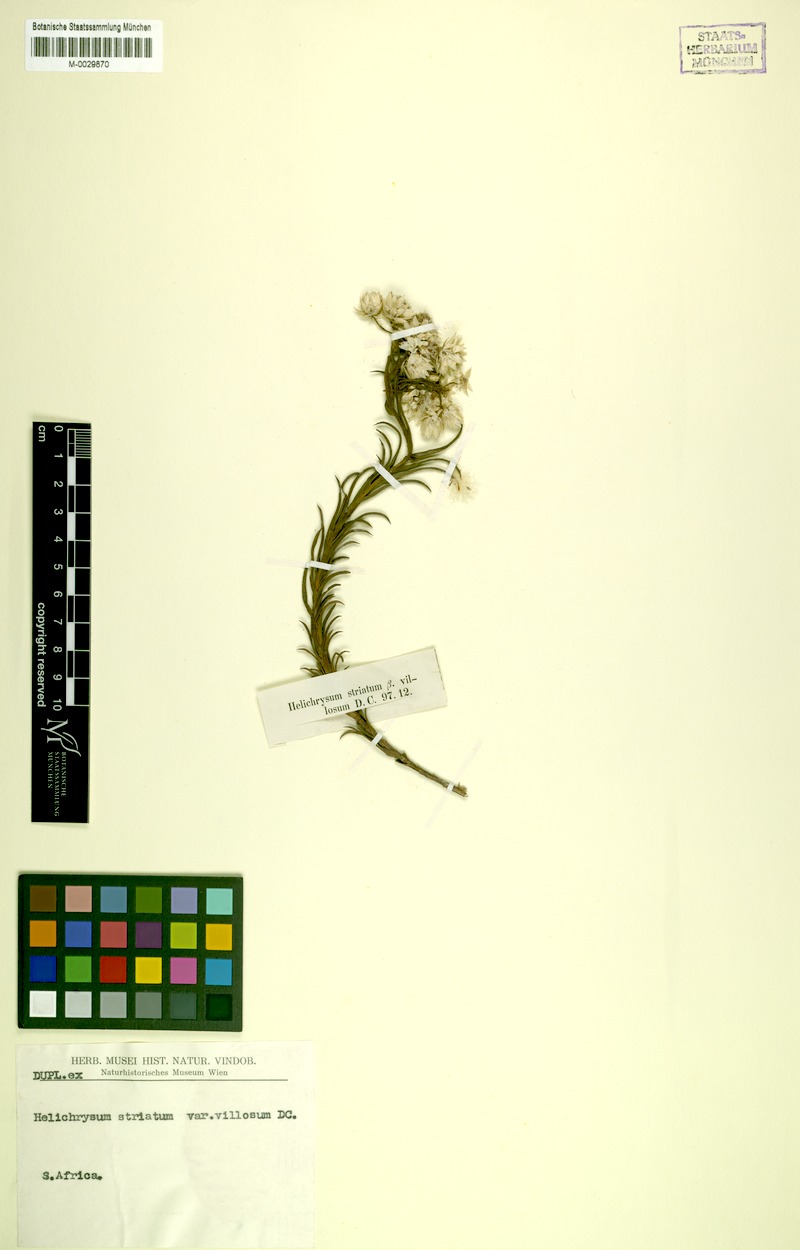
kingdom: Plantae
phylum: Tracheophyta
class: Magnoliopsida
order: Asterales
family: Asteraceae
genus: Achyranthemum
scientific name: Achyranthemum striatum
